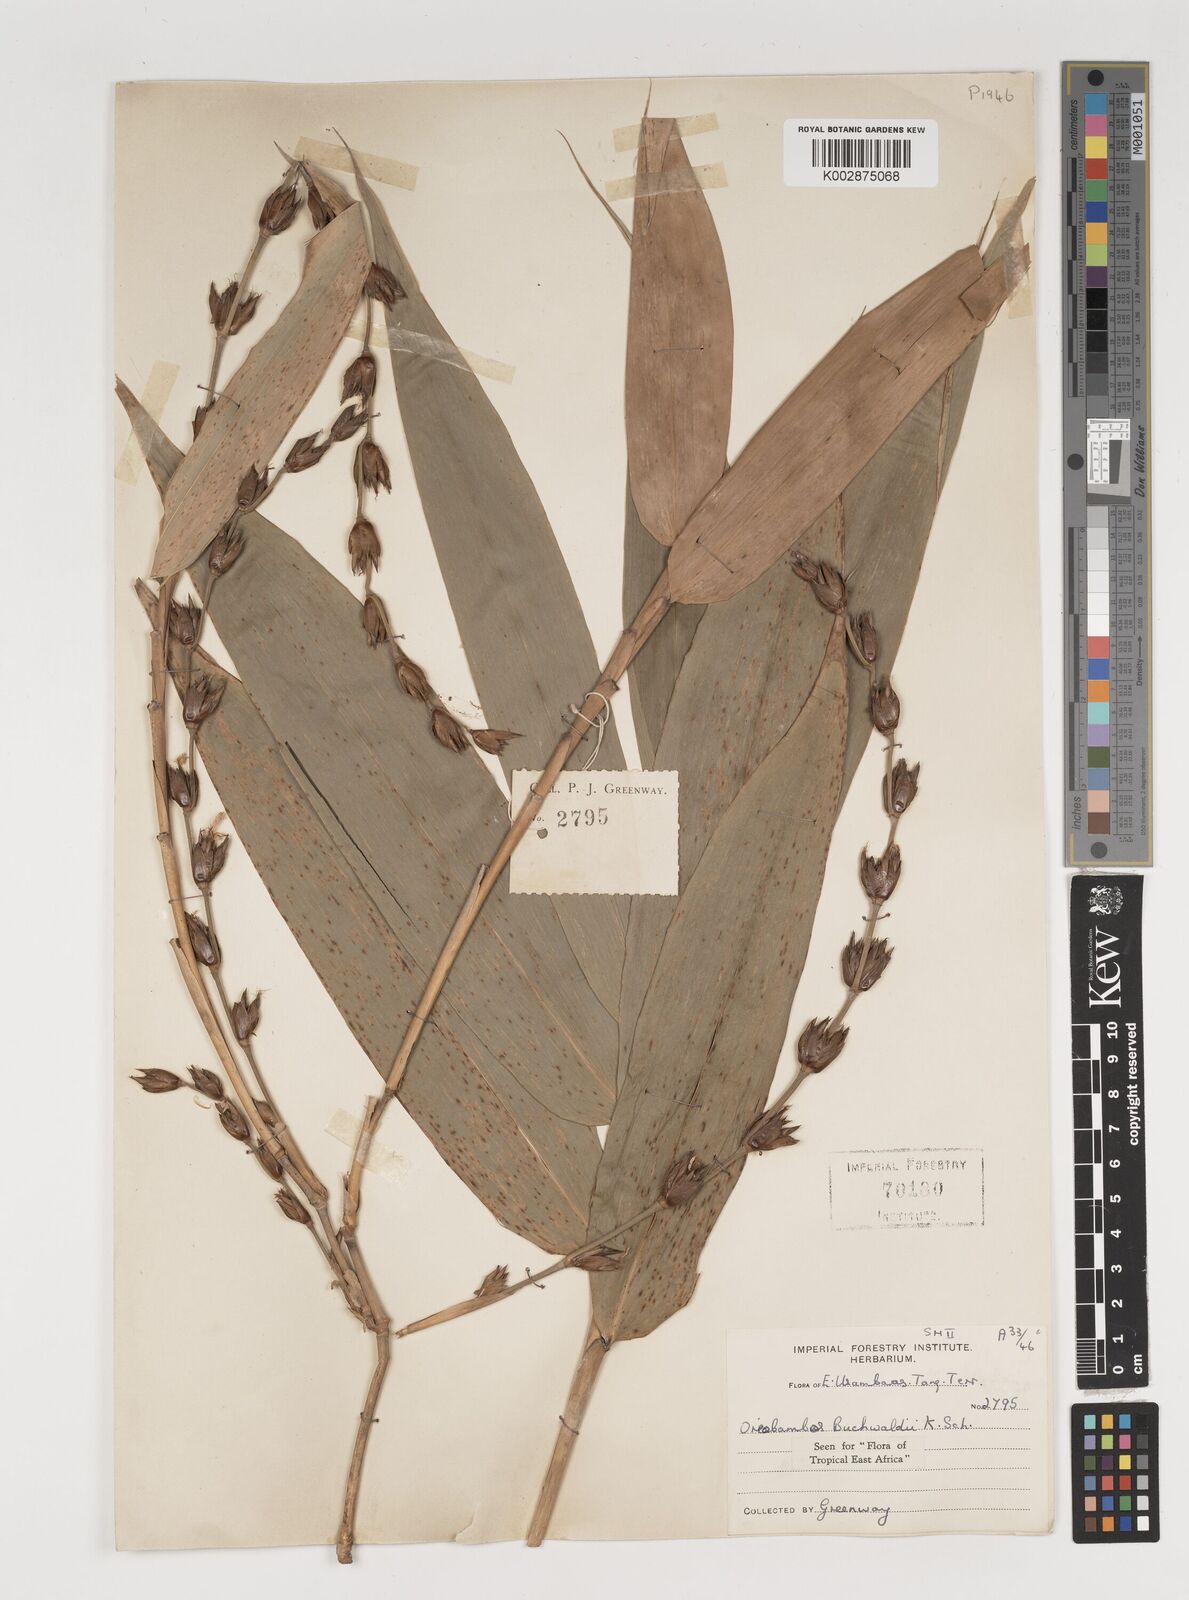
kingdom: Plantae
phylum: Tracheophyta
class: Liliopsida
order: Poales
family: Poaceae
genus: Oreobambos
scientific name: Oreobambos
